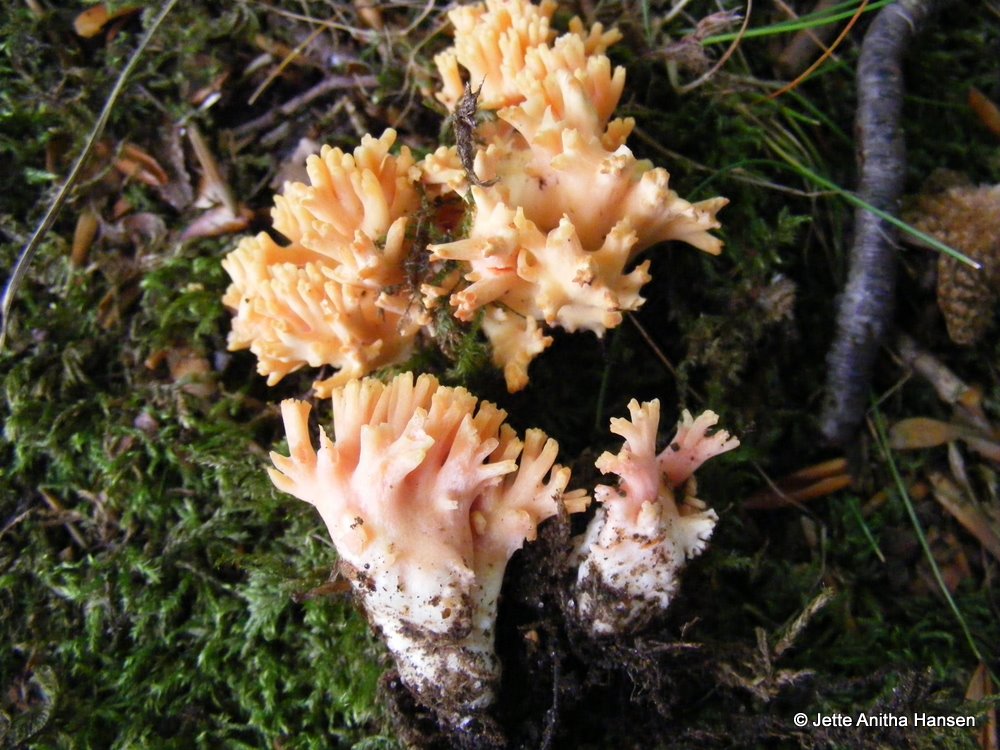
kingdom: Fungi
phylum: Basidiomycota
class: Agaricomycetes
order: Gomphales
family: Gomphaceae
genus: Ramaria
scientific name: Ramaria fagetorum
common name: abrikos-koralsvamp
